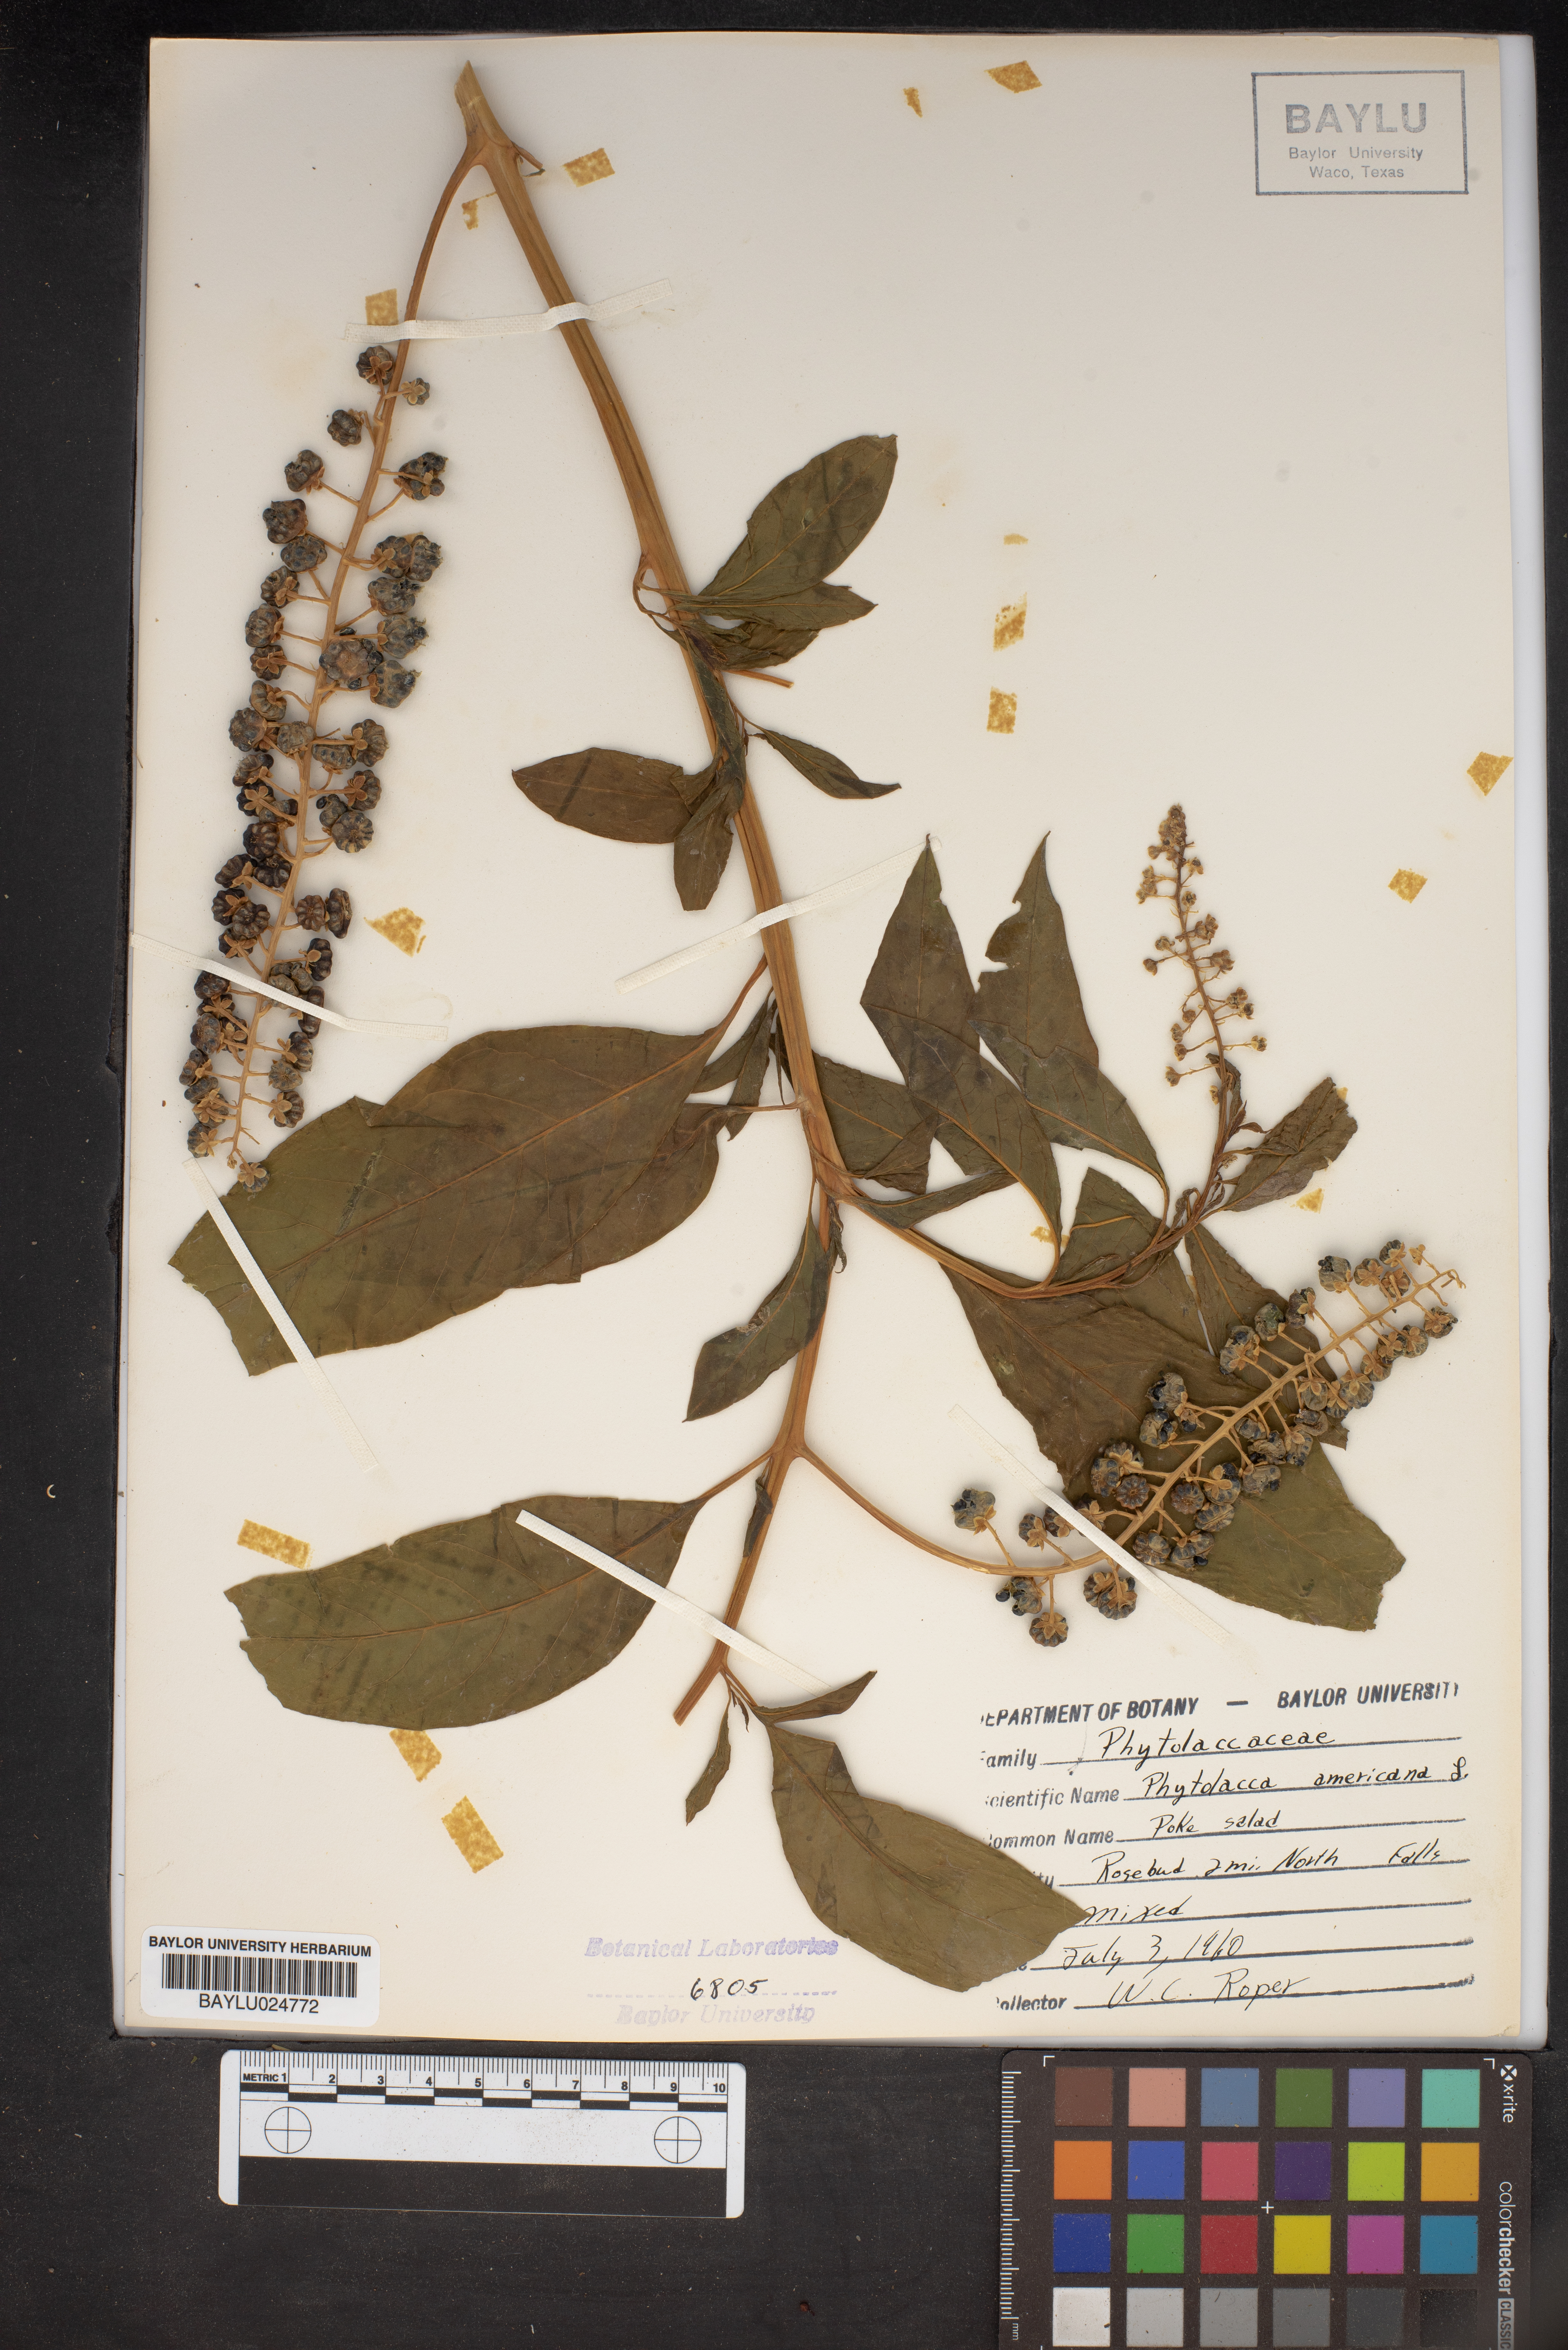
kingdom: Plantae
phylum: Tracheophyta
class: Magnoliopsida
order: Caryophyllales
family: Phytolaccaceae
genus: Phytolacca
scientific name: Phytolacca americana
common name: American pokeweed
